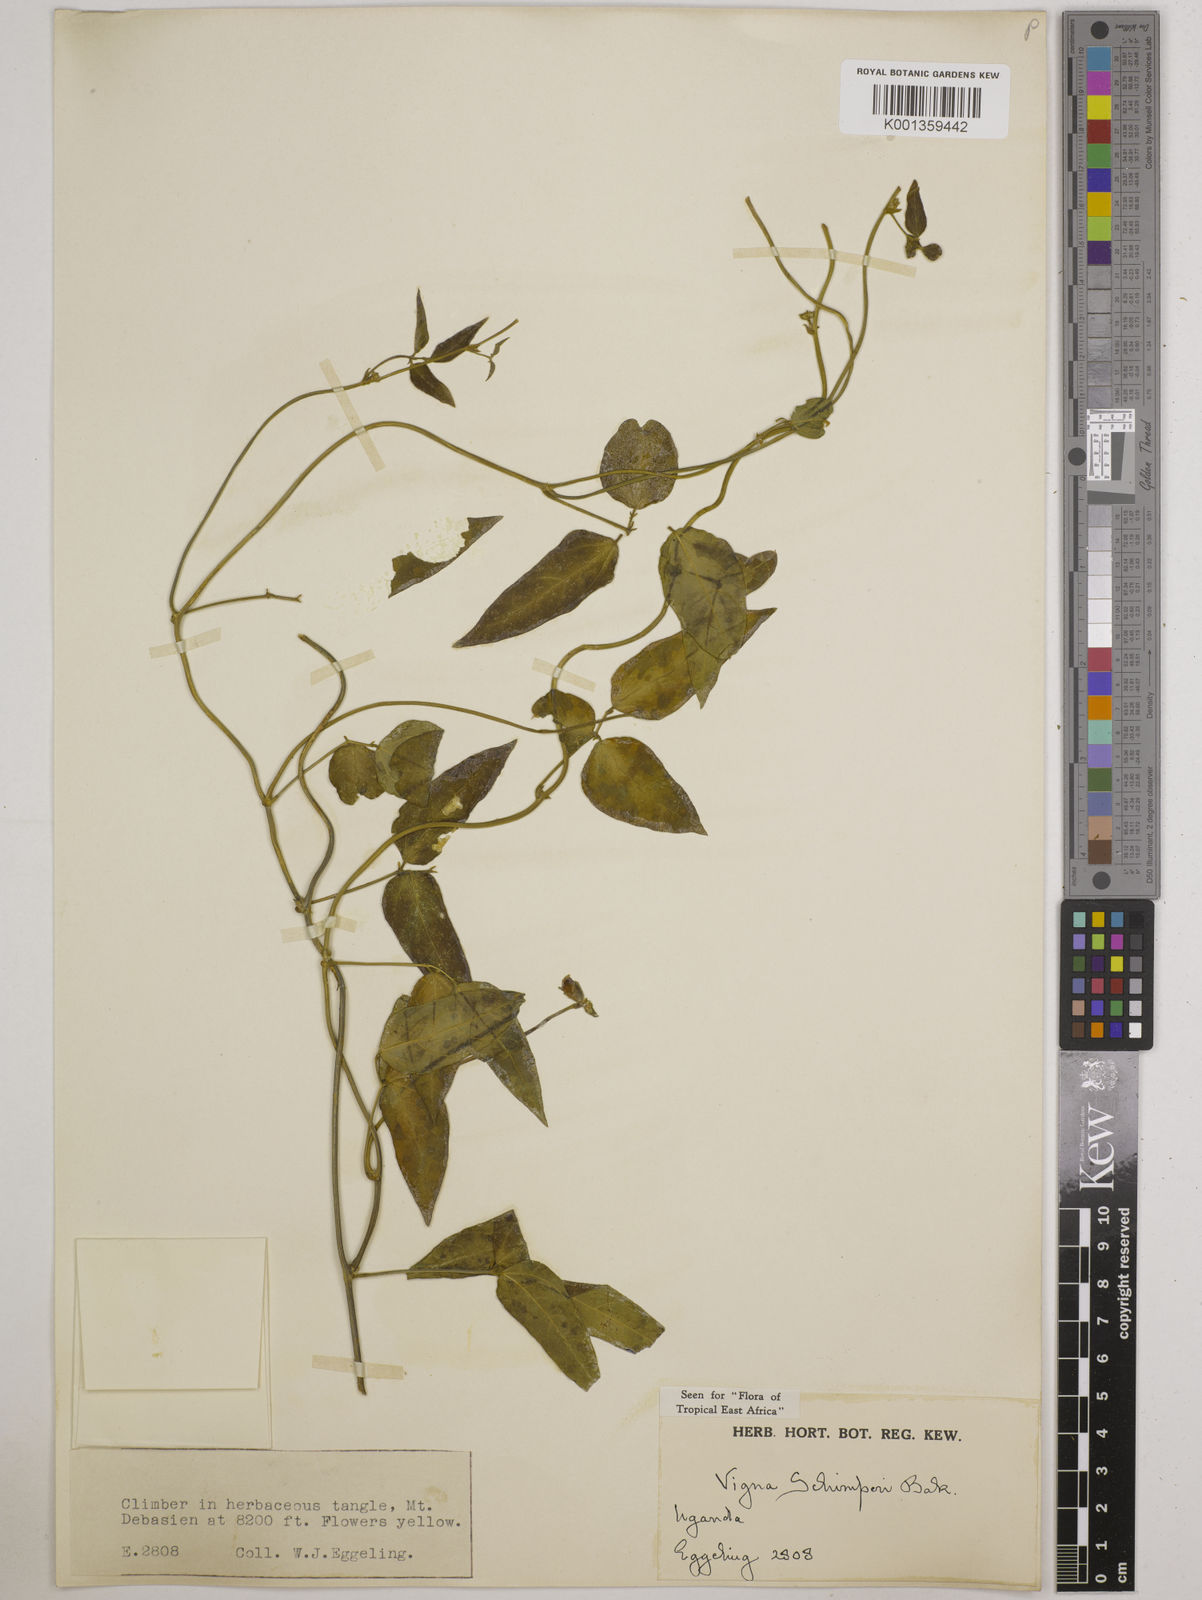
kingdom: Plantae
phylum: Tracheophyta
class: Magnoliopsida
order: Fabales
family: Fabaceae
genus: Vigna
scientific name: Vigna schimperi
